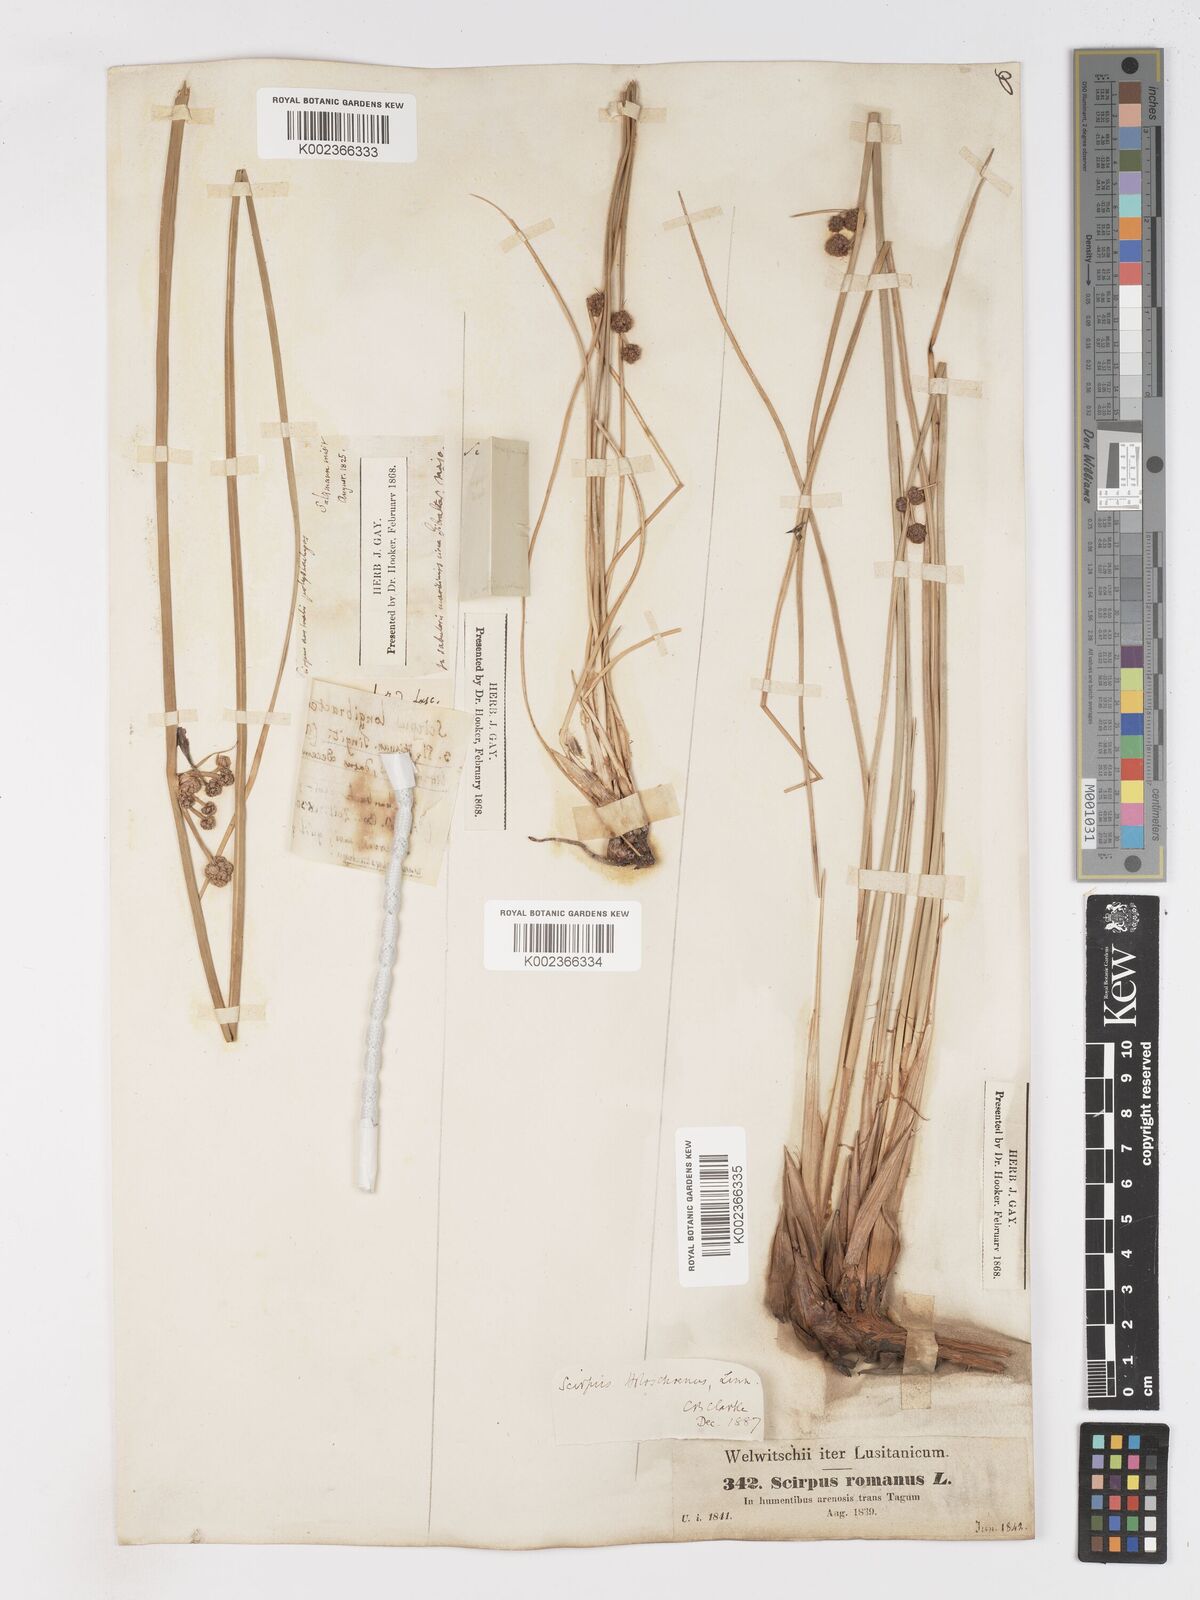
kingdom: Plantae
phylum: Tracheophyta
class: Liliopsida
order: Poales
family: Cyperaceae
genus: Scirpoides
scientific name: Scirpoides holoschoenus
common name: Round-headed club-rush
